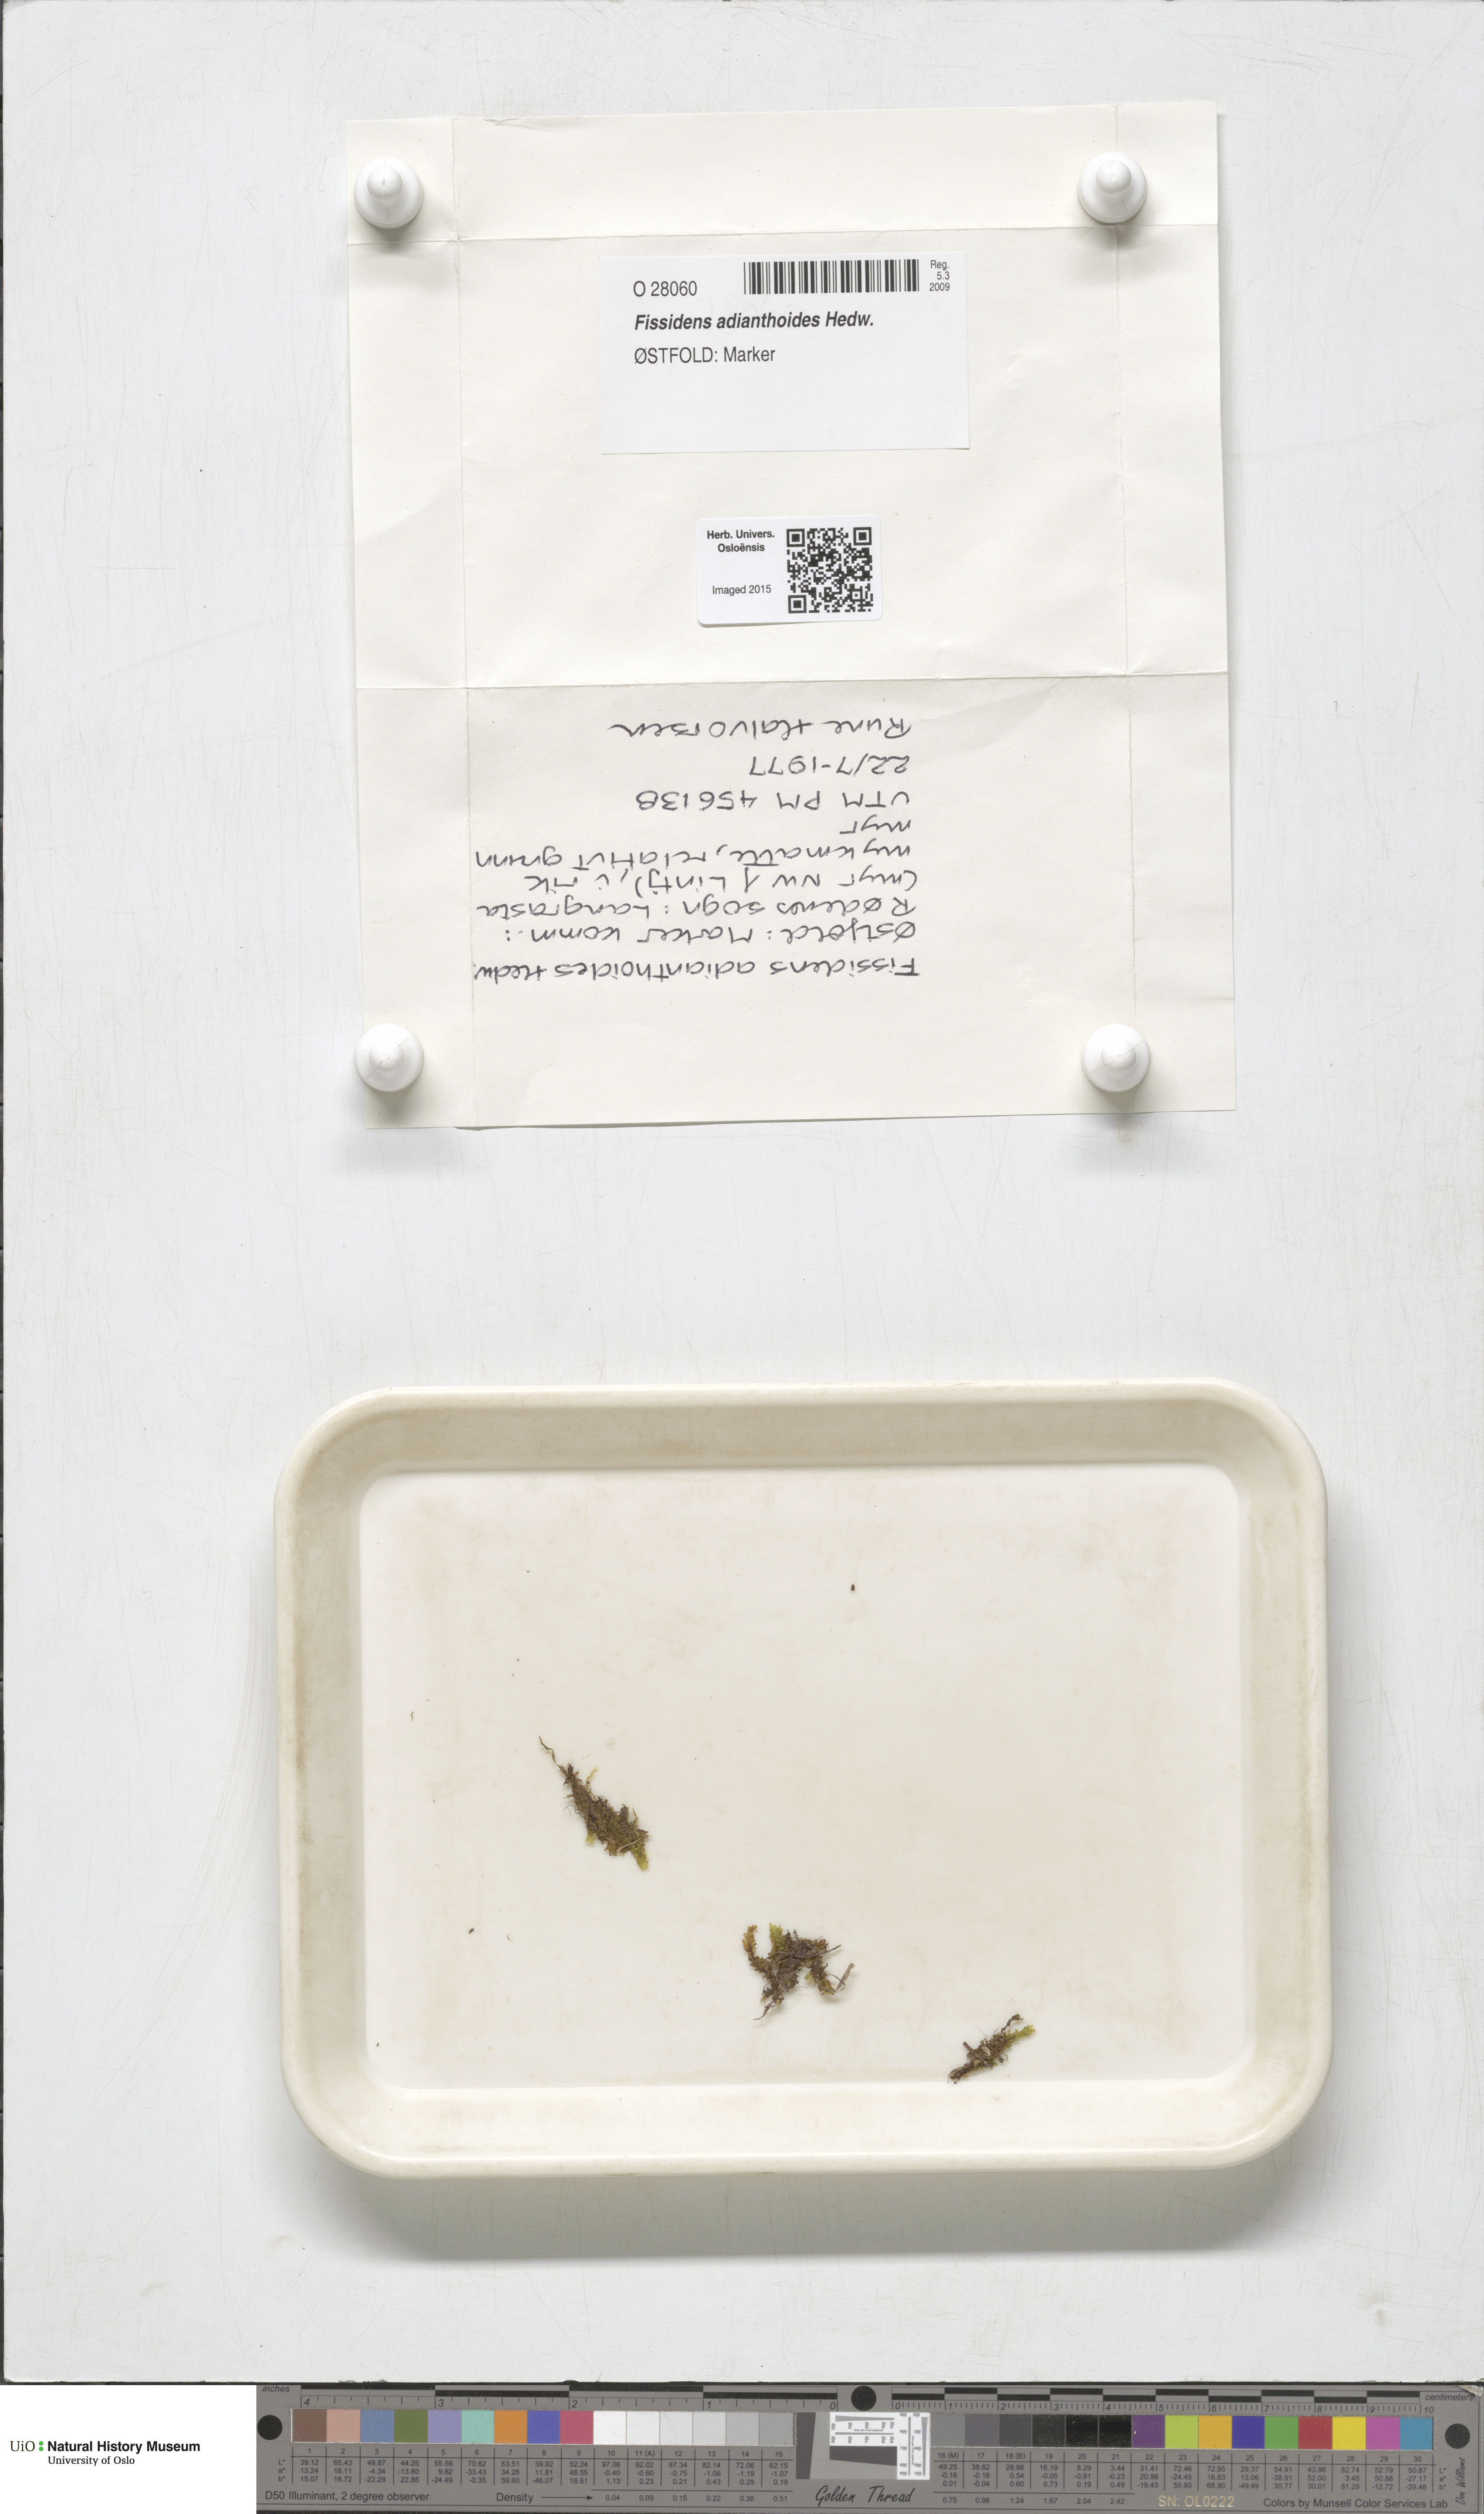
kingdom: Plantae
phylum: Bryophyta
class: Bryopsida
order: Dicranales
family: Fissidentaceae
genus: Fissidens
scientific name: Fissidens adianthoides
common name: Maidenhair pocket moss
